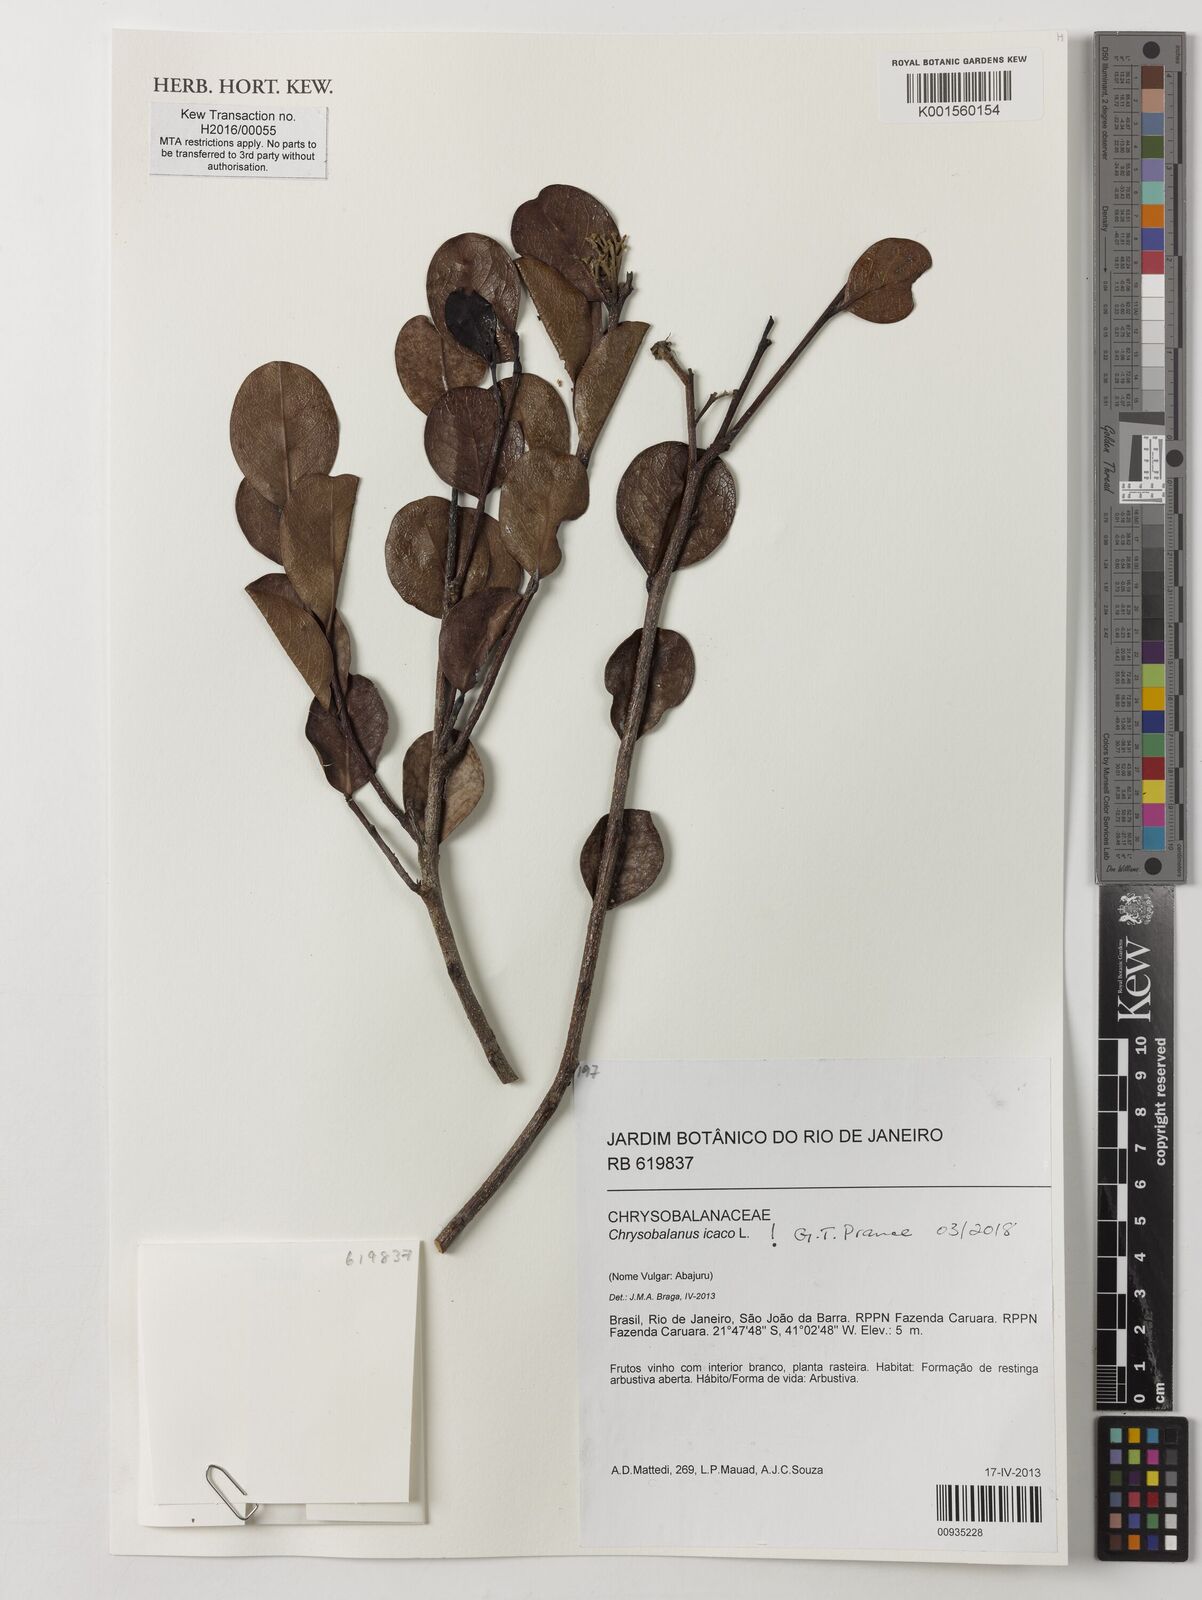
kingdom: Plantae
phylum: Tracheophyta
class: Magnoliopsida
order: Malpighiales
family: Chrysobalanaceae
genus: Chrysobalanus
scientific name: Chrysobalanus icaco
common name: Coco plum
